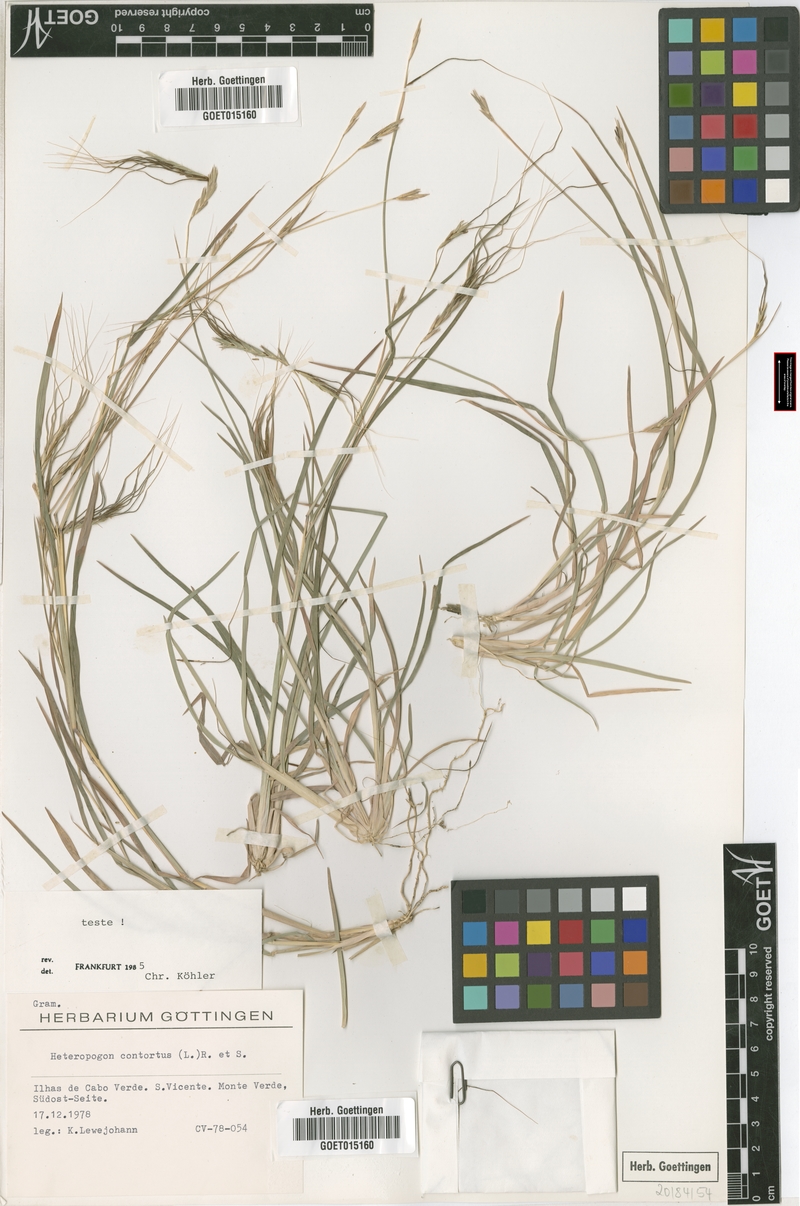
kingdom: Plantae
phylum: Tracheophyta
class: Liliopsida
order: Poales
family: Poaceae
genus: Heteropogon
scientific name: Heteropogon contortus
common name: Tanglehead
